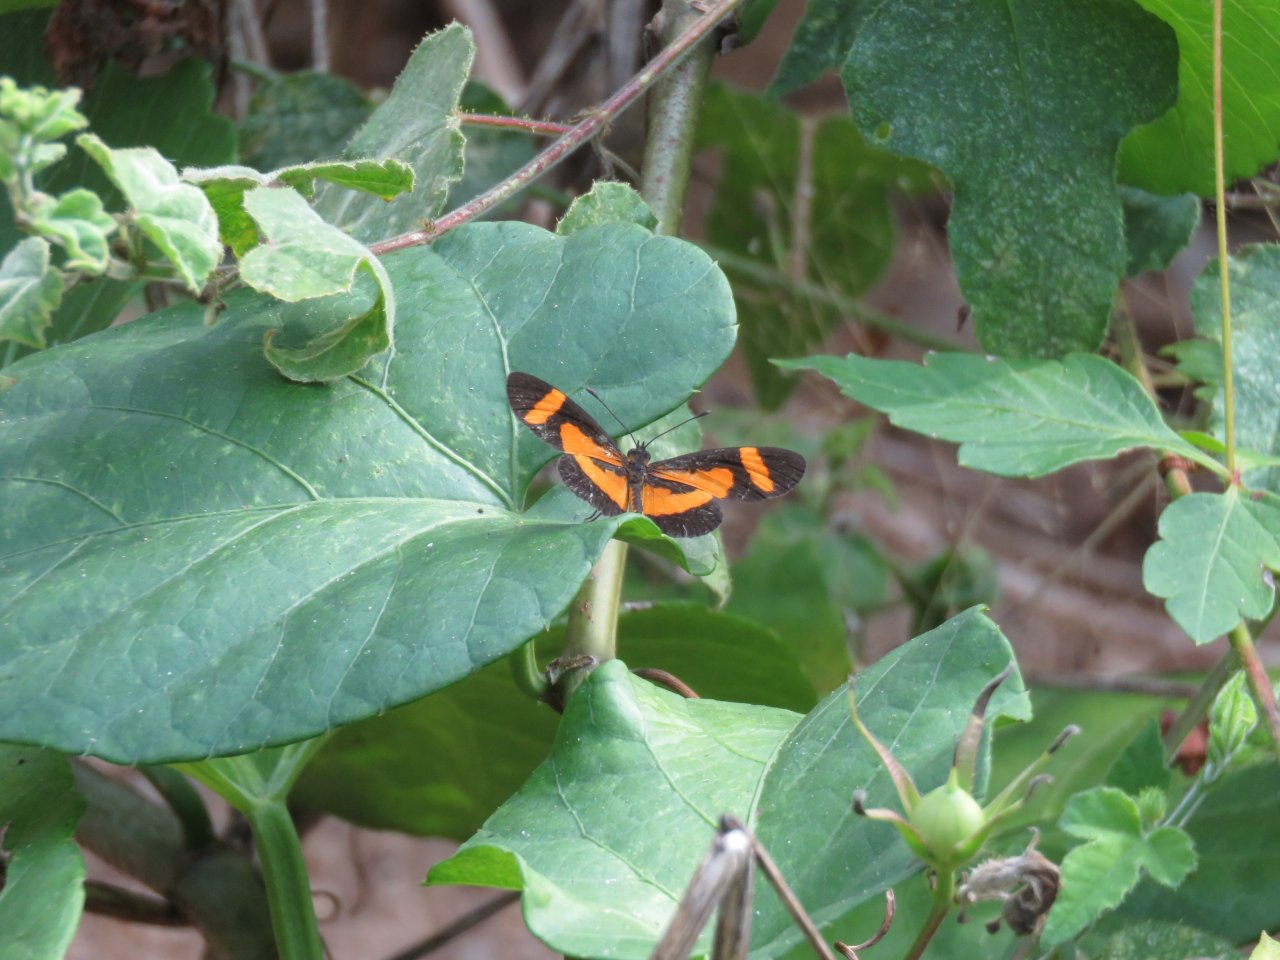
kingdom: Animalia
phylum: Arthropoda
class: Insecta
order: Lepidoptera
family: Nymphalidae
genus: Microtia
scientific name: Microtia elva
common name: Elf
